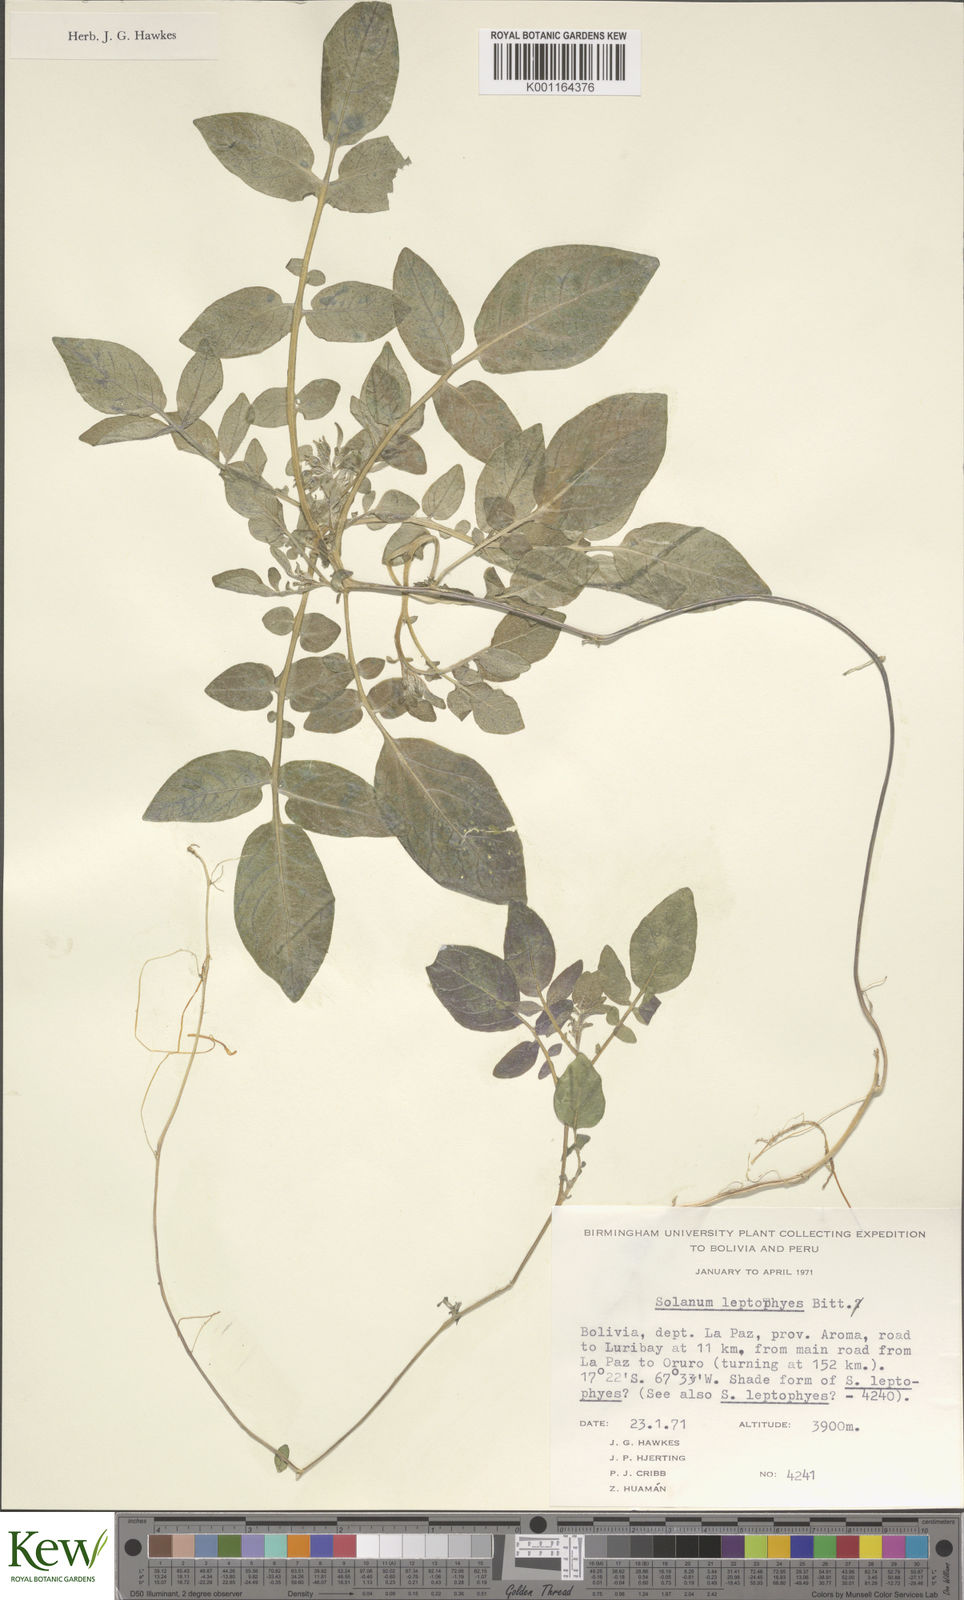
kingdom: Plantae
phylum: Tracheophyta
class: Magnoliopsida
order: Solanales
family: Solanaceae
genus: Solanum
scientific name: Solanum brevicaule
